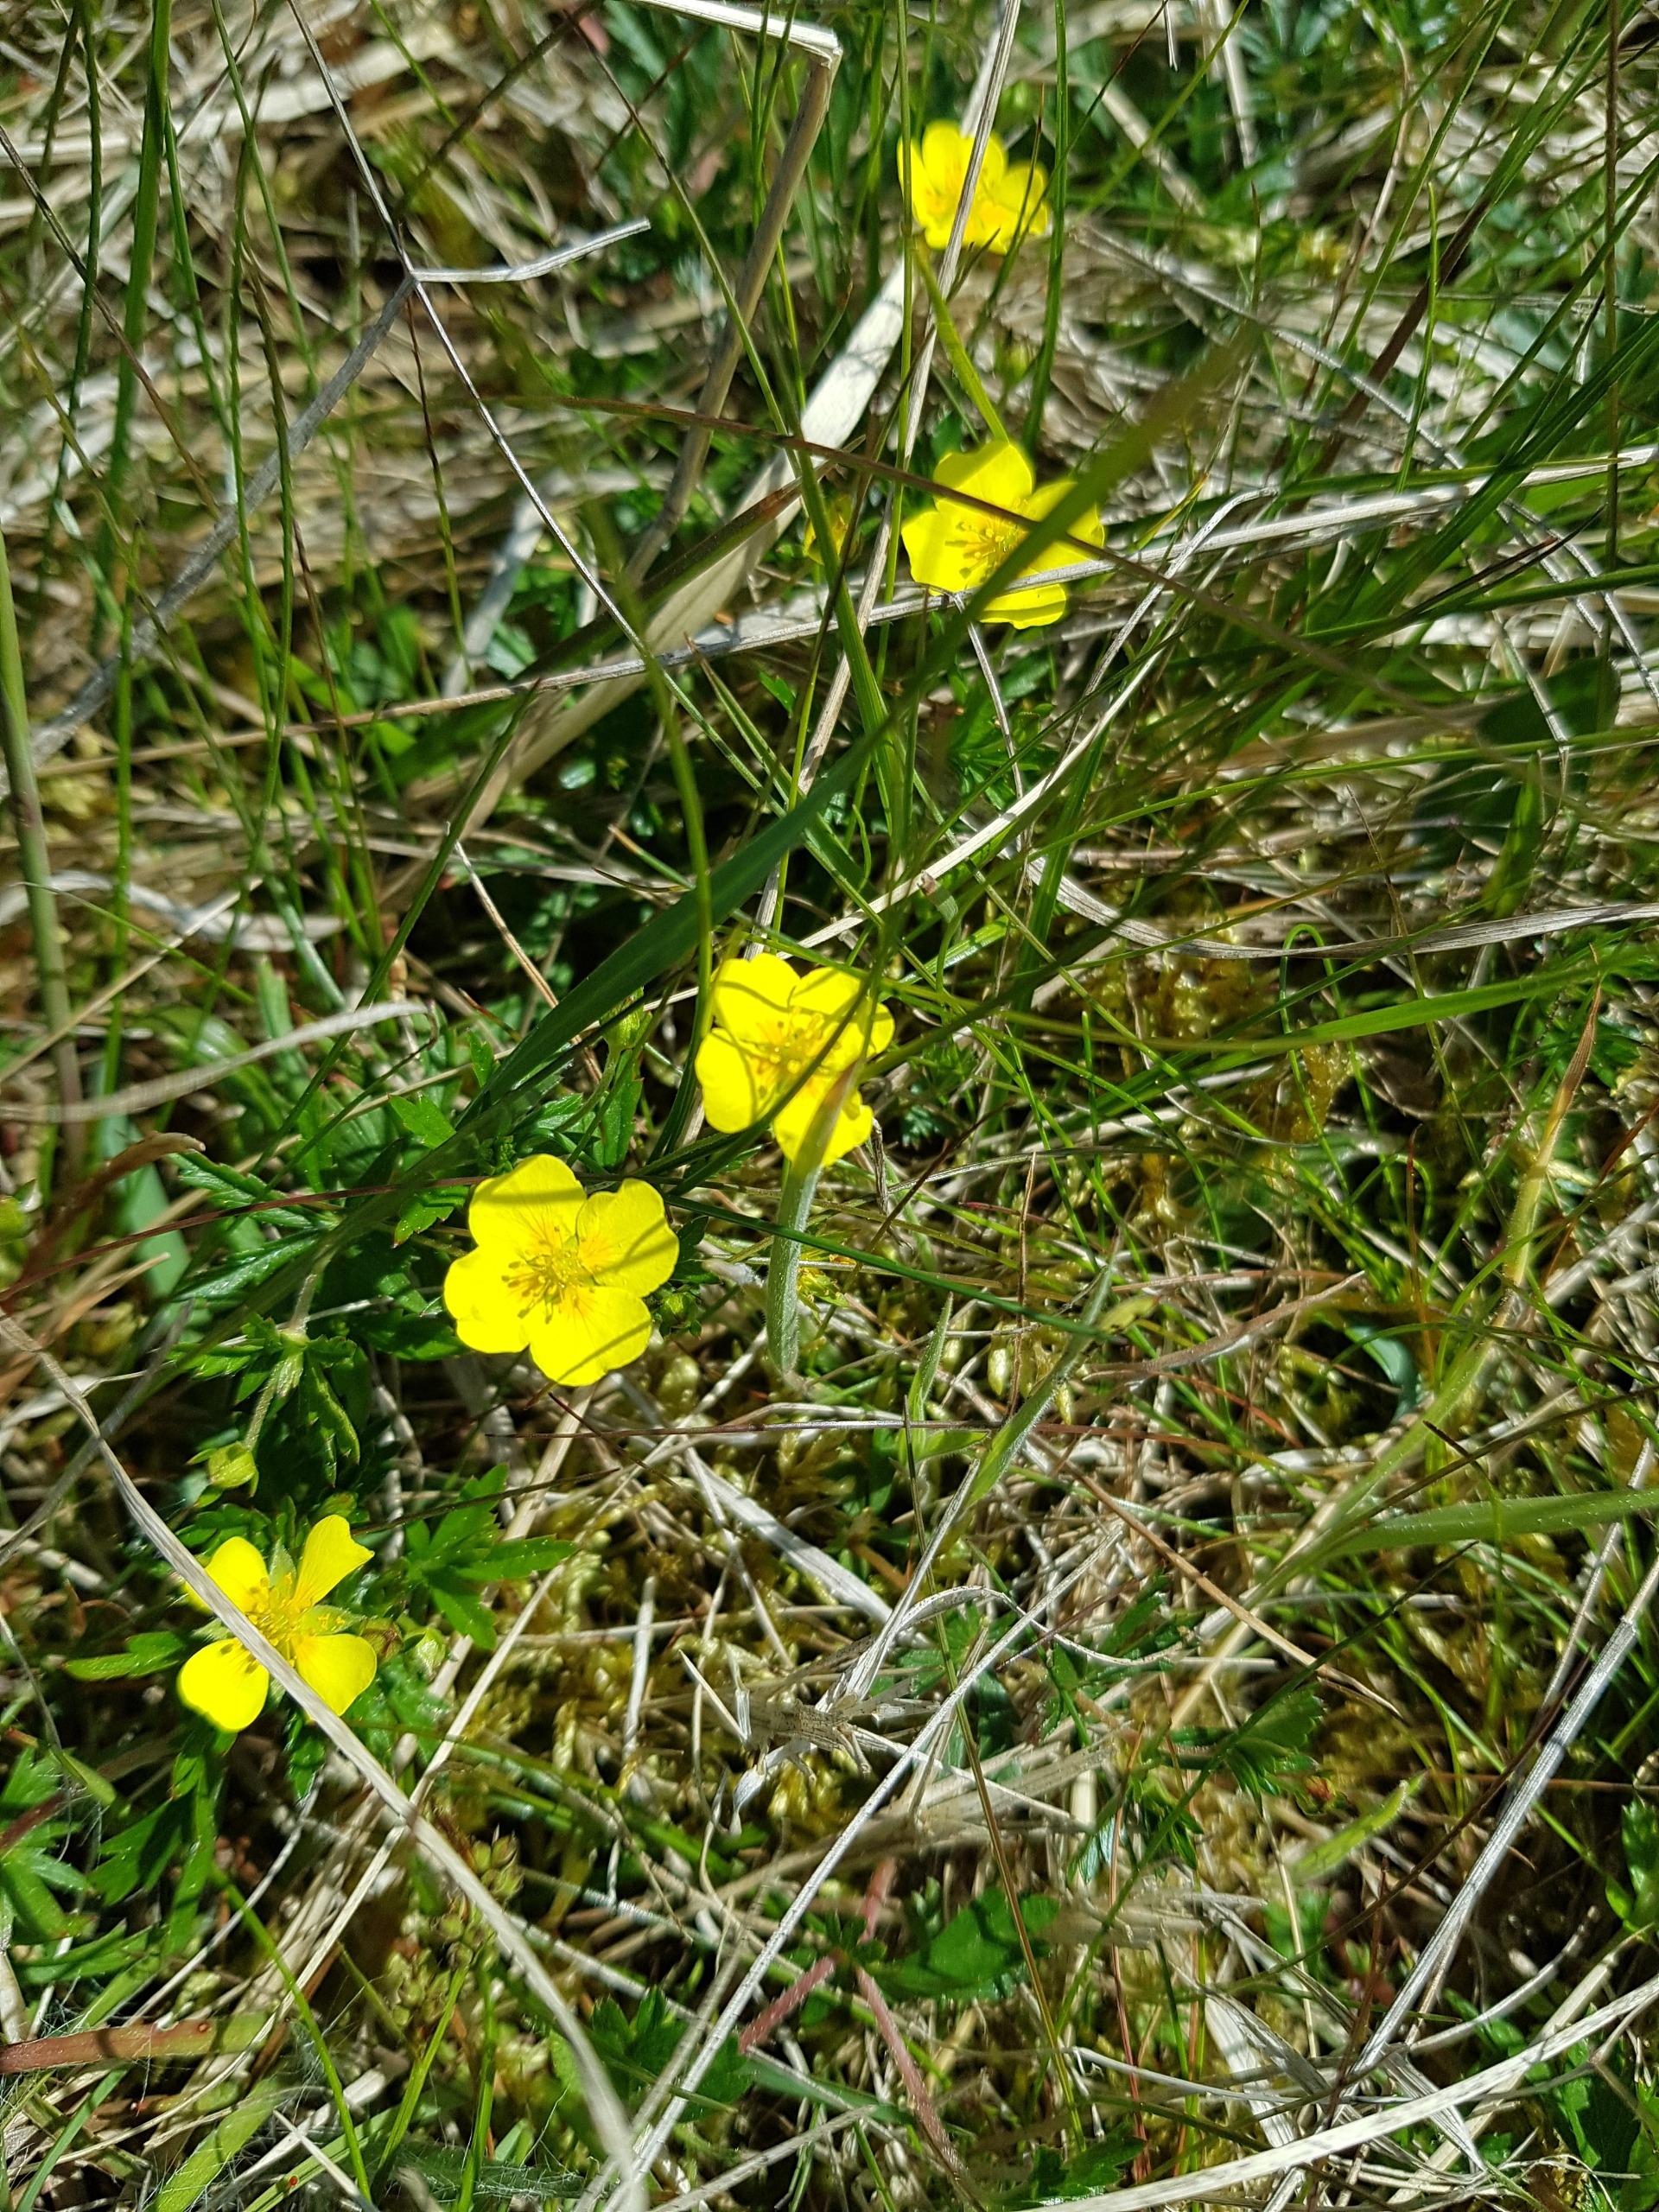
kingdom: Plantae
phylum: Tracheophyta
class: Magnoliopsida
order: Rosales
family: Rosaceae
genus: Potentilla
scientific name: Potentilla erecta
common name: Tormentil
